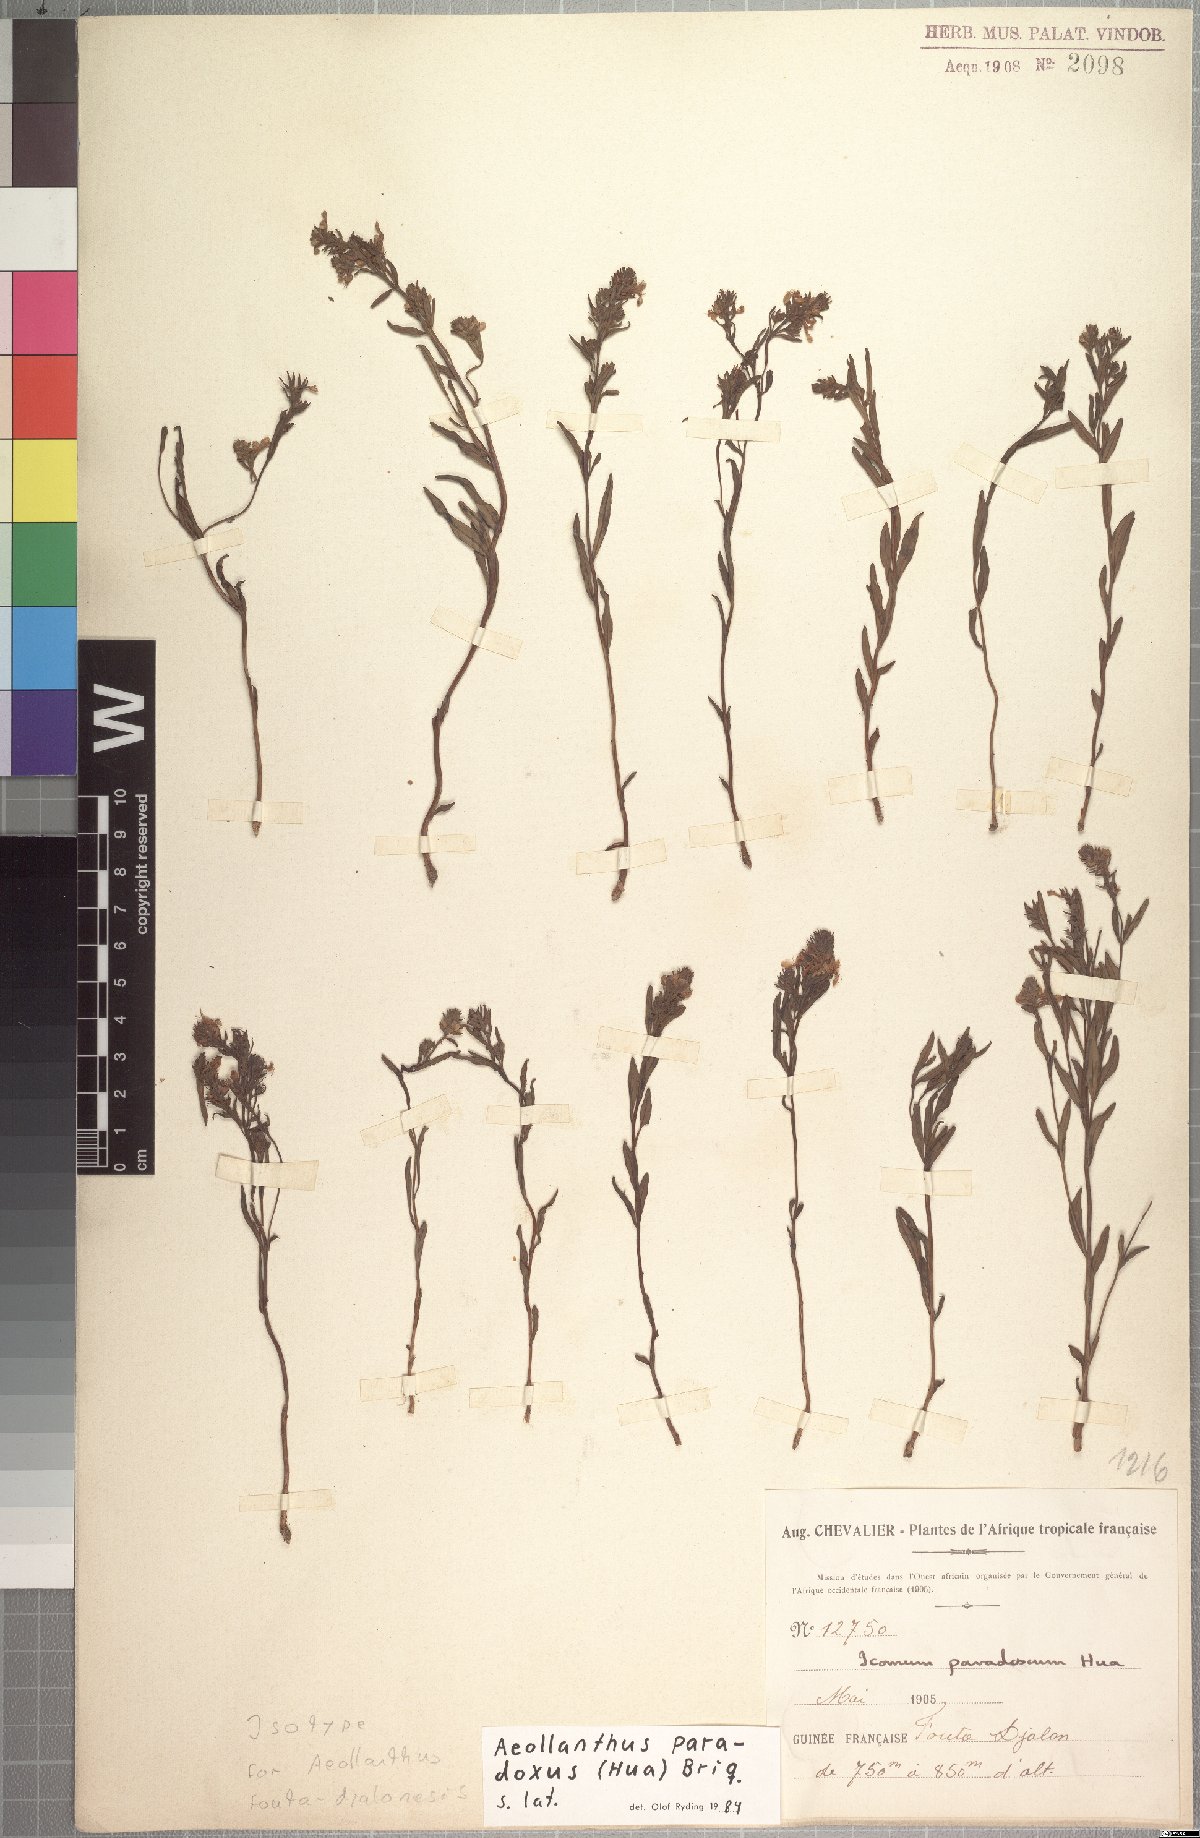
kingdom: Plantae
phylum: Tracheophyta
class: Magnoliopsida
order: Lamiales
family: Lamiaceae
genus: Aeollanthus
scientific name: Aeollanthus paradoxus
